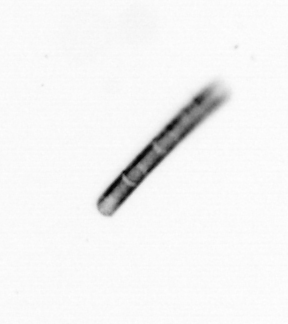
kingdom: Chromista
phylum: Ochrophyta
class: Bacillariophyceae
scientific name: Bacillariophyceae
